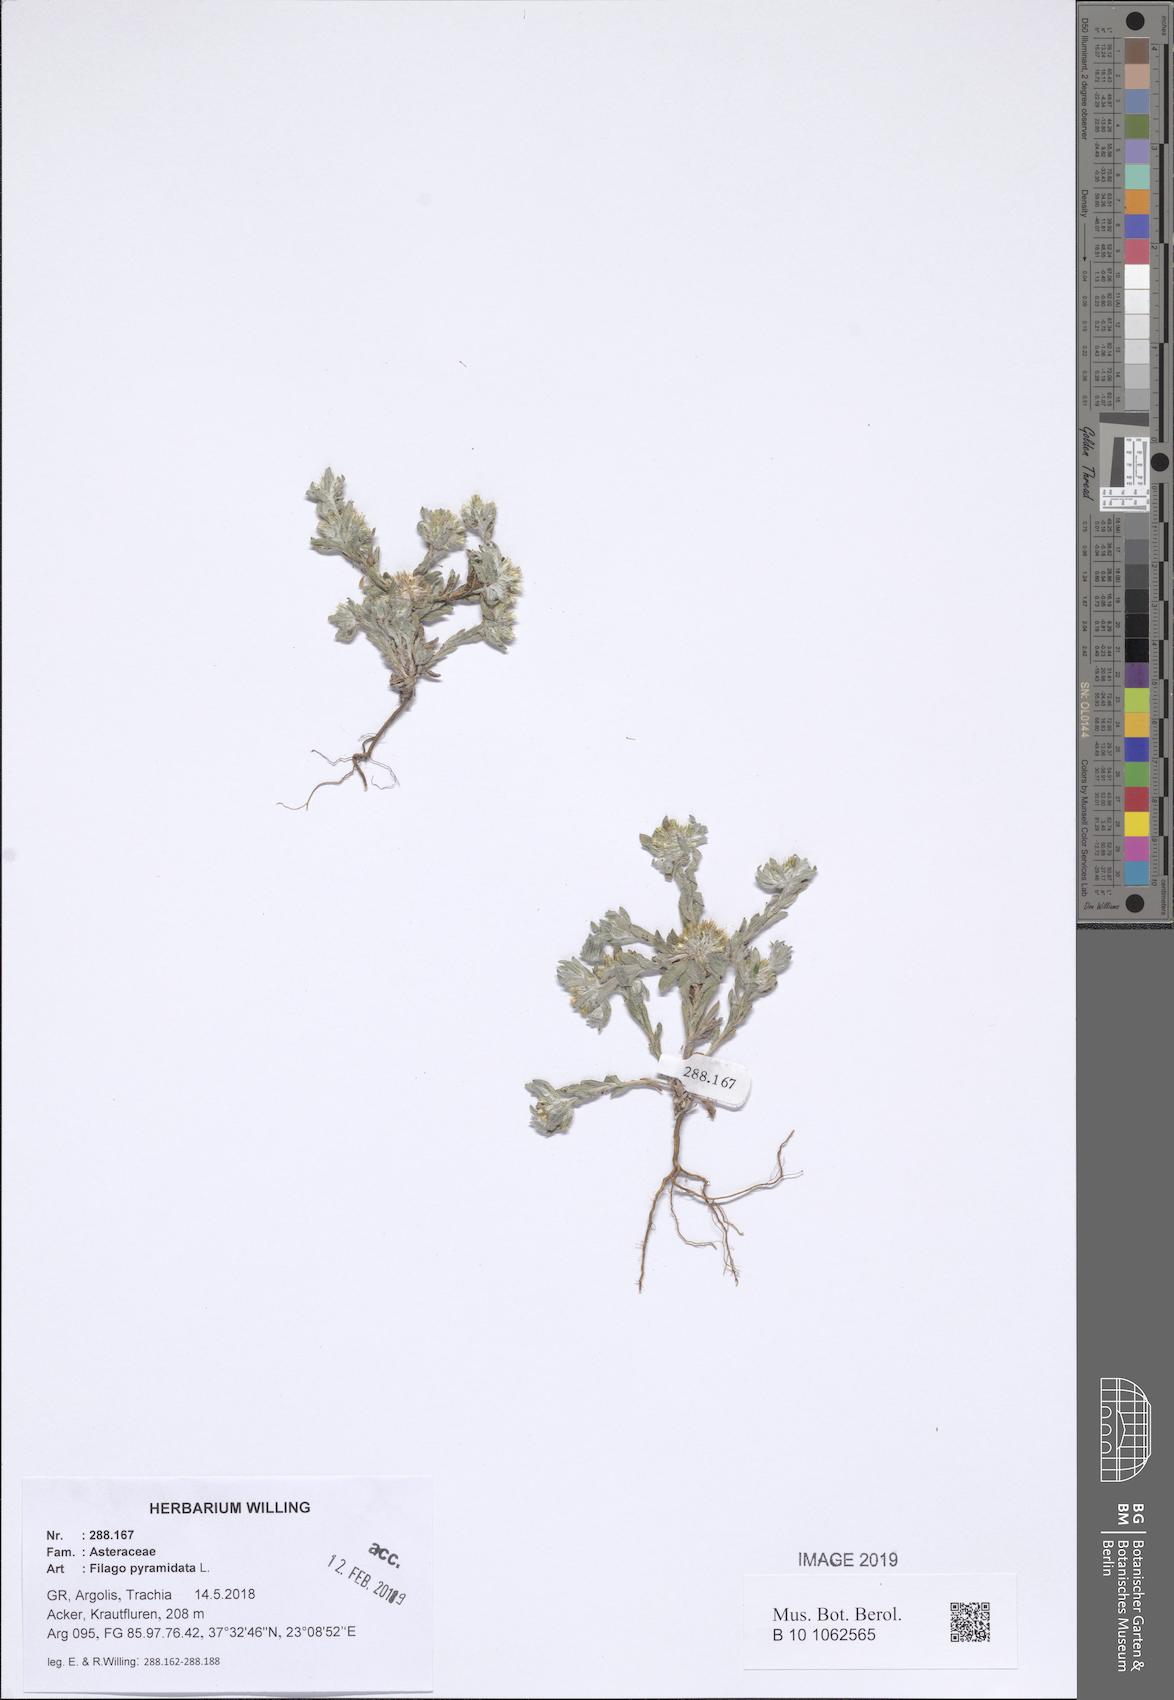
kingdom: Plantae
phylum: Tracheophyta
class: Magnoliopsida
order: Asterales
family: Asteraceae
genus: Filago
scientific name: Filago pyramidata
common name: Broad-leaved cudweed
